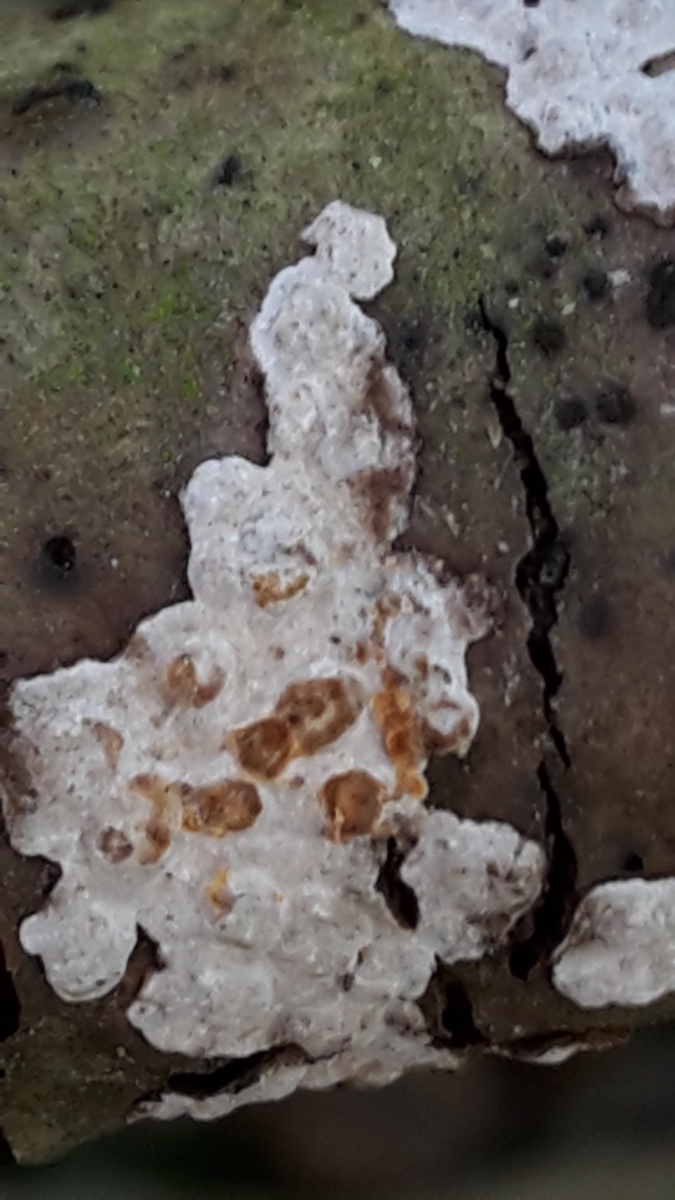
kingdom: Fungi
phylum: Basidiomycota
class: Agaricomycetes
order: Russulales
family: Stereaceae
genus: Stereum
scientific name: Stereum rugosum
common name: rynket lædersvamp
